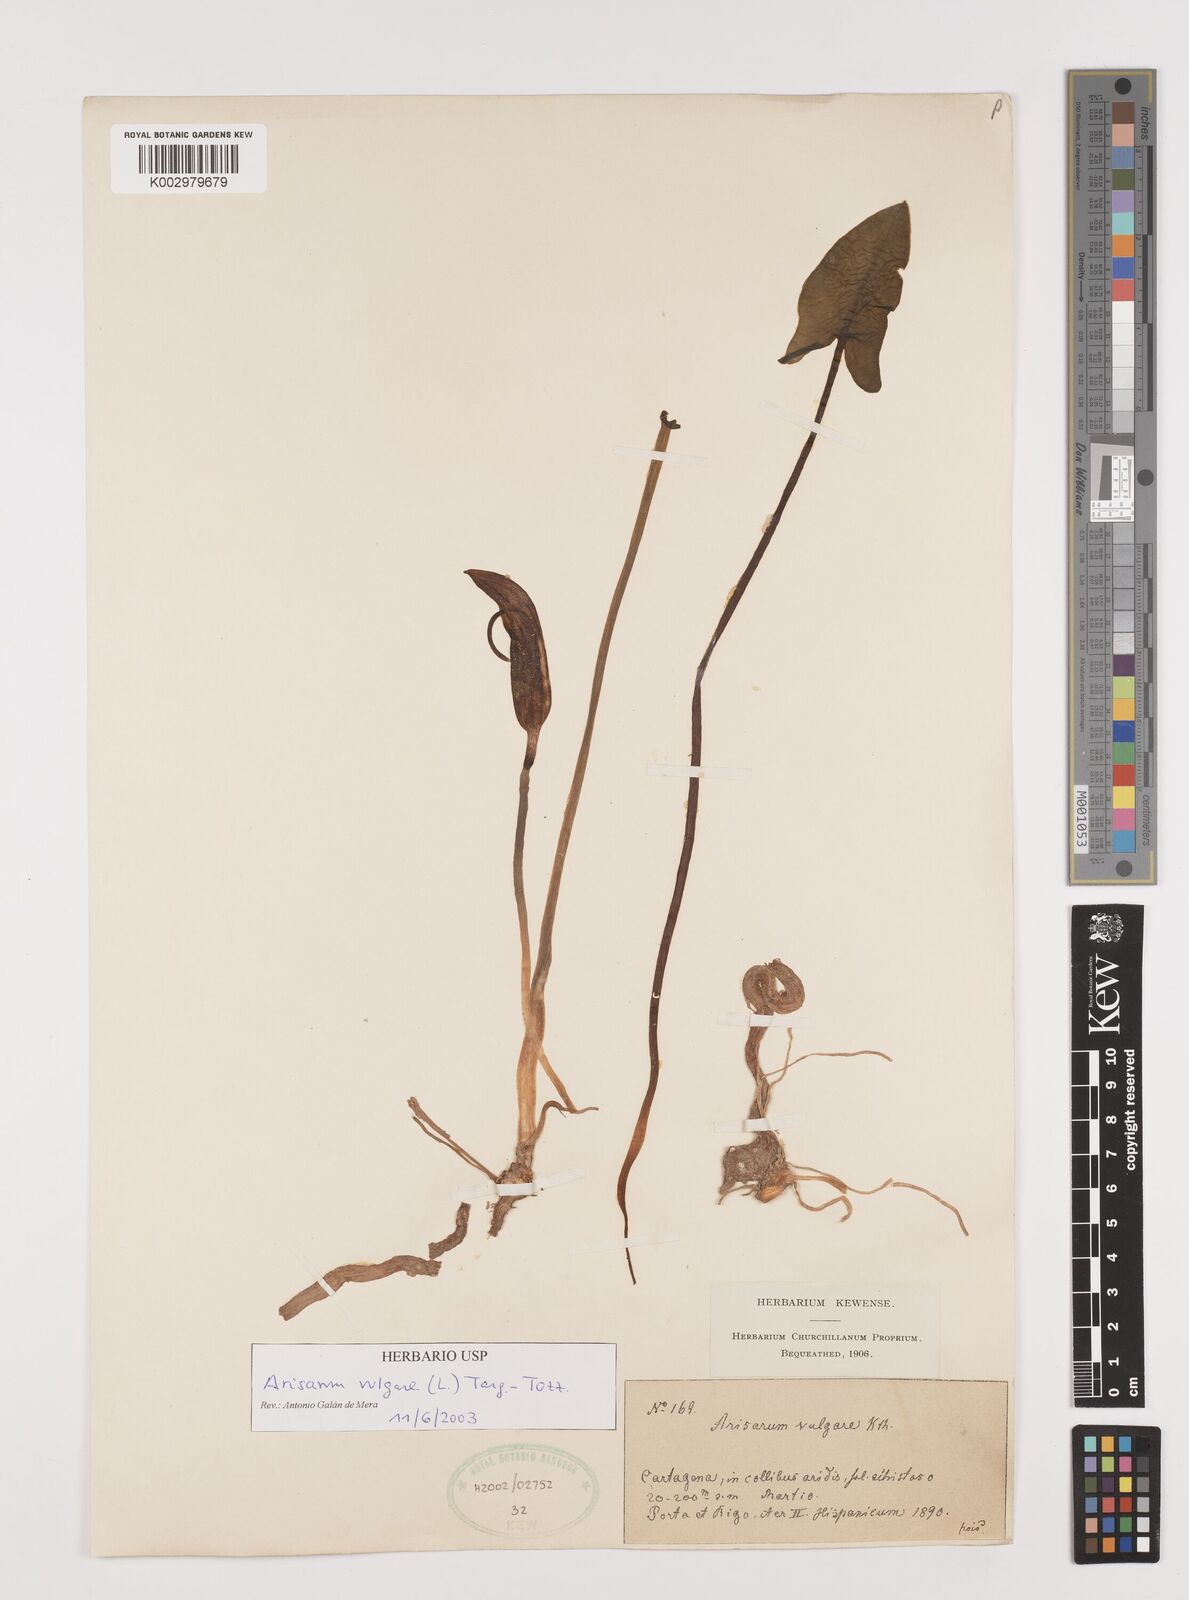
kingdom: Plantae
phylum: Tracheophyta
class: Liliopsida
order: Alismatales
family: Araceae
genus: Arisarum
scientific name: Arisarum vulgare
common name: Common arisarum
